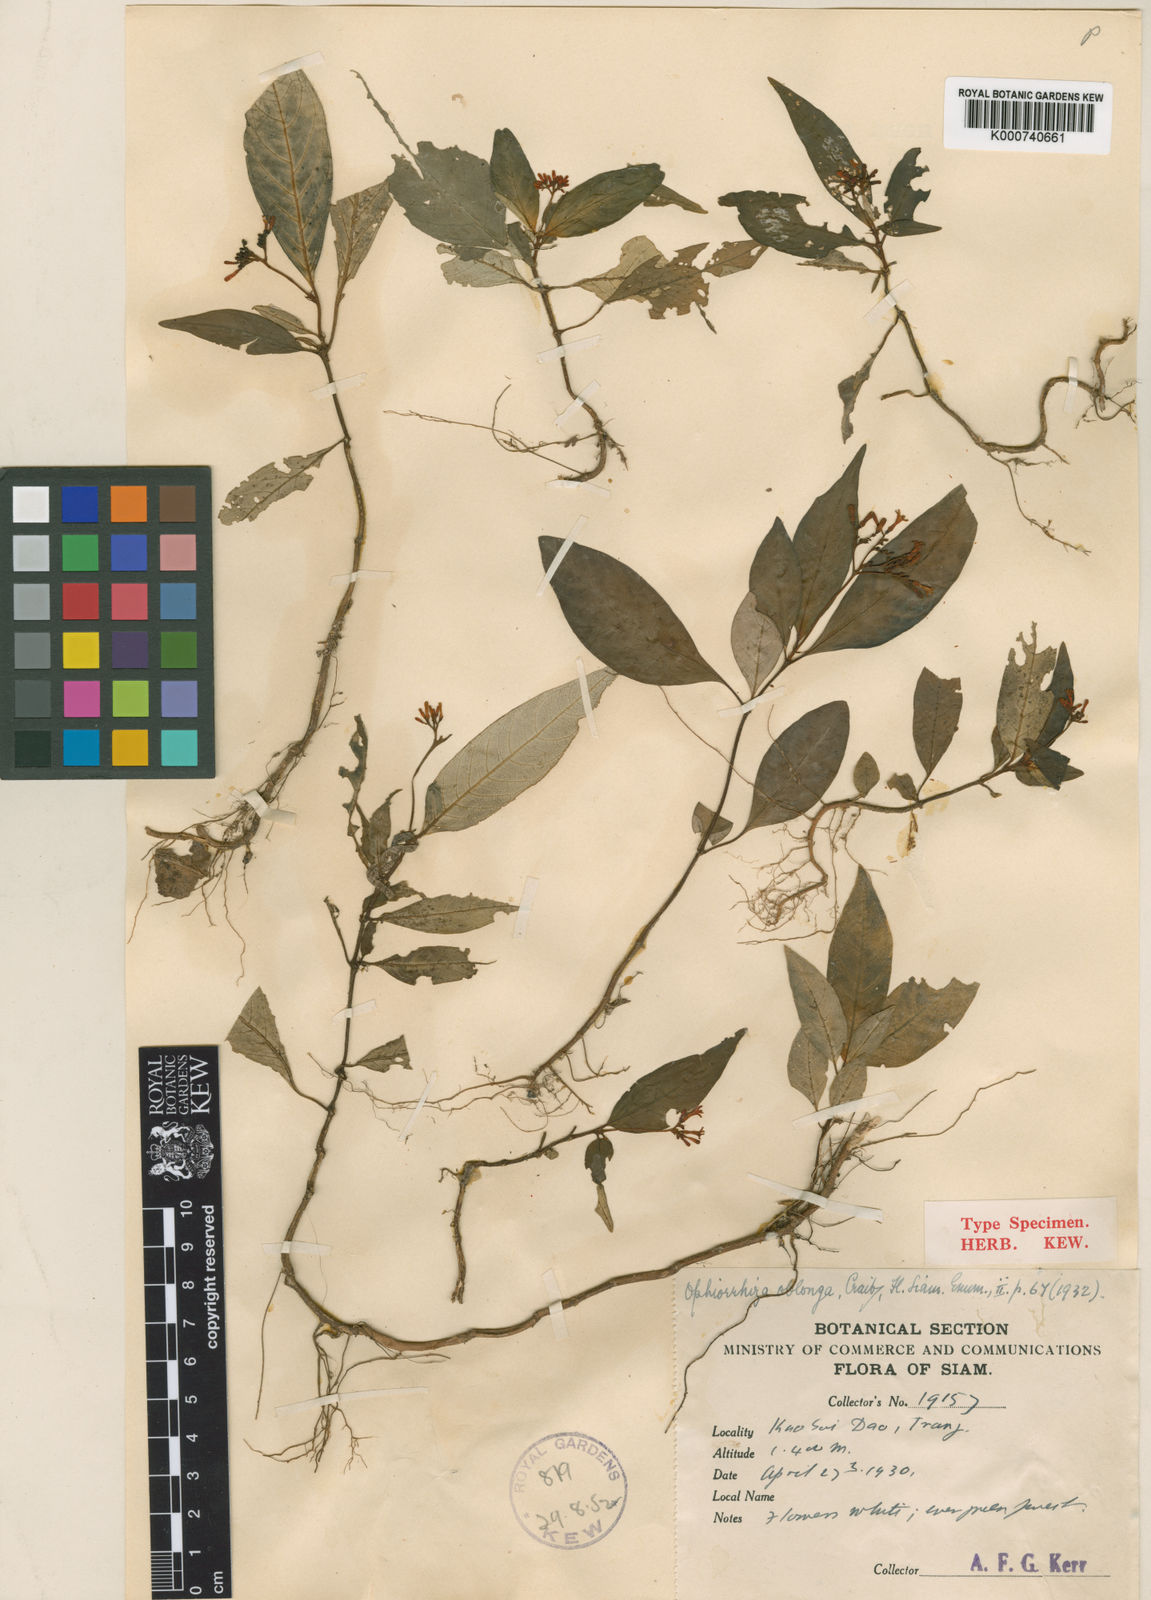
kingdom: Plantae
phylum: Tracheophyta
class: Magnoliopsida
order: Gentianales
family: Rubiaceae
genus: Ophiorrhiza
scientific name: Ophiorrhiza oblonga
